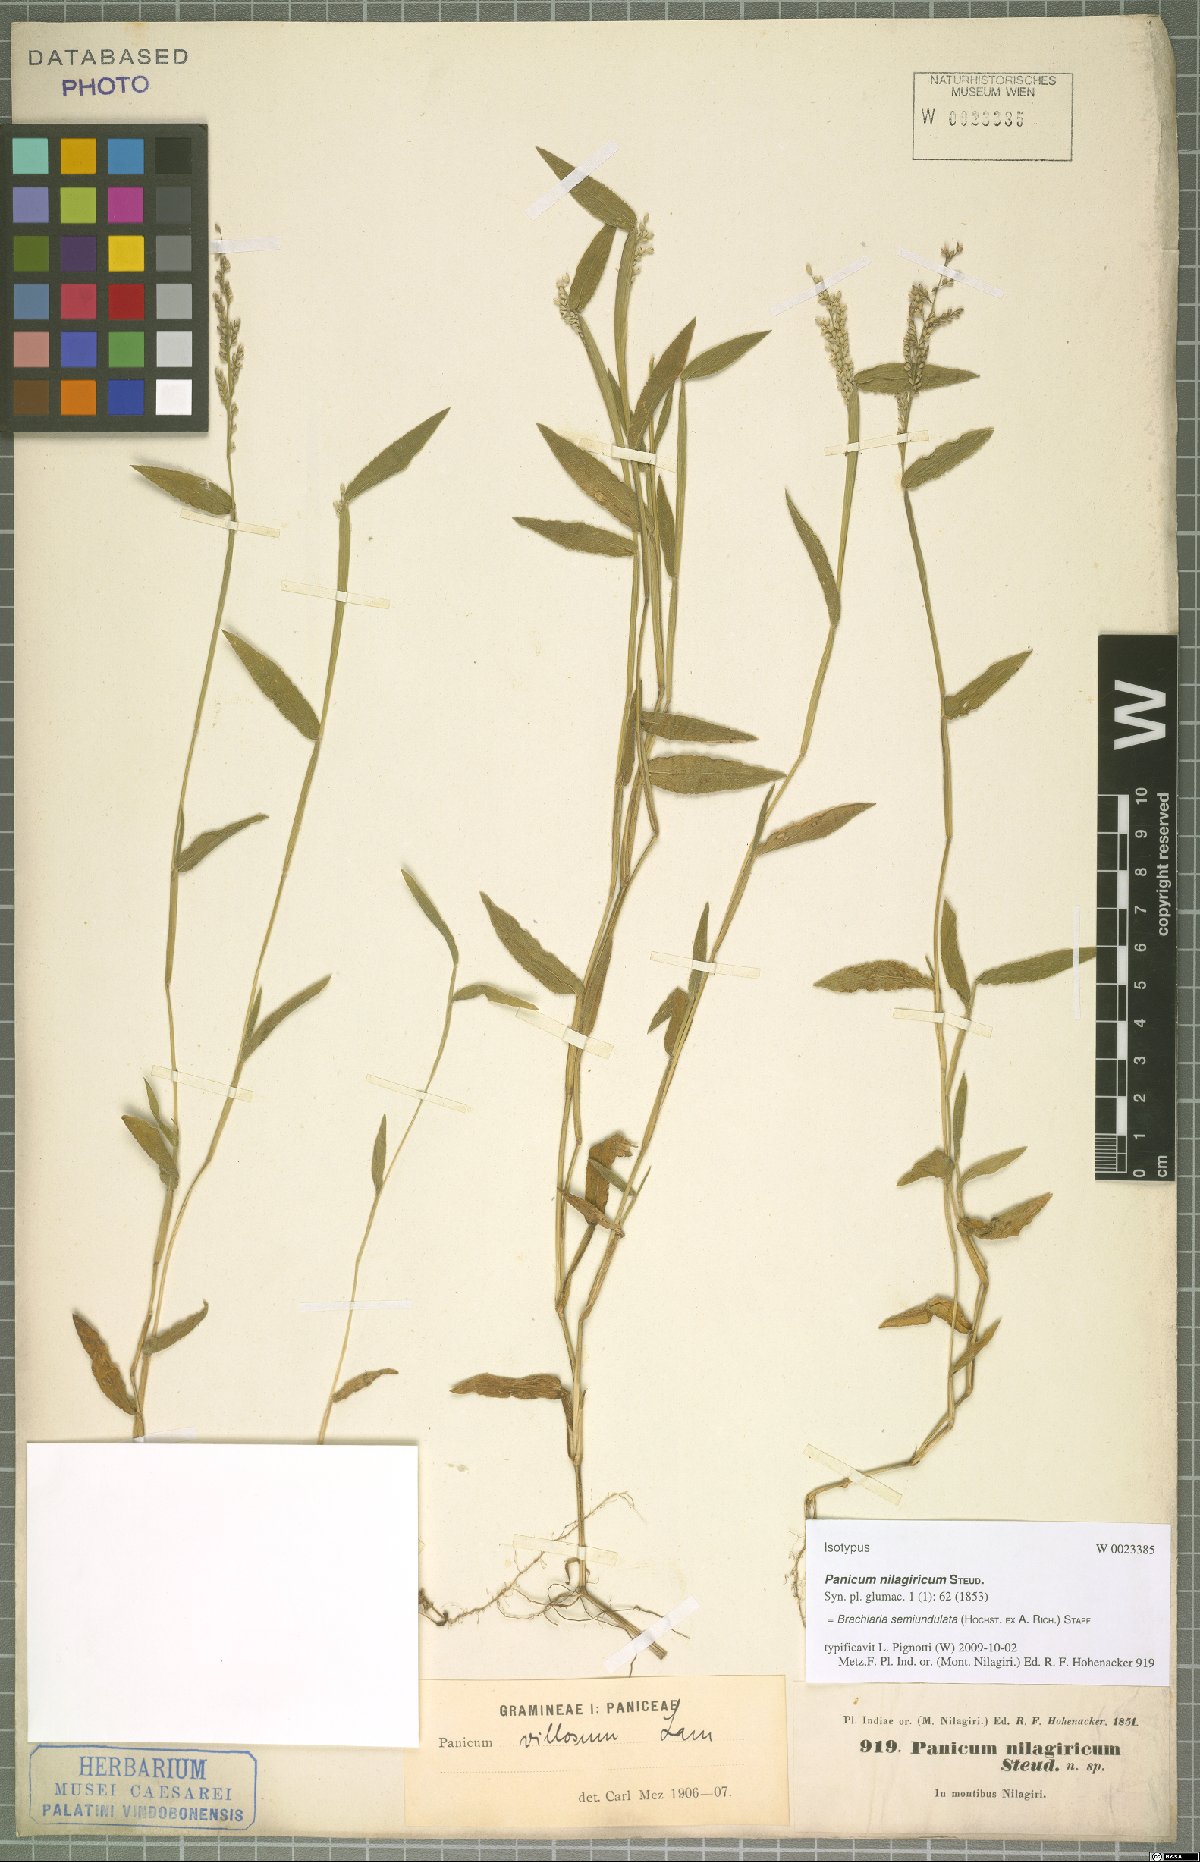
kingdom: Plantae
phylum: Tracheophyta
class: Liliopsida
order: Poales
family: Poaceae
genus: Urochloa
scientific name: Urochloa semiundulata
